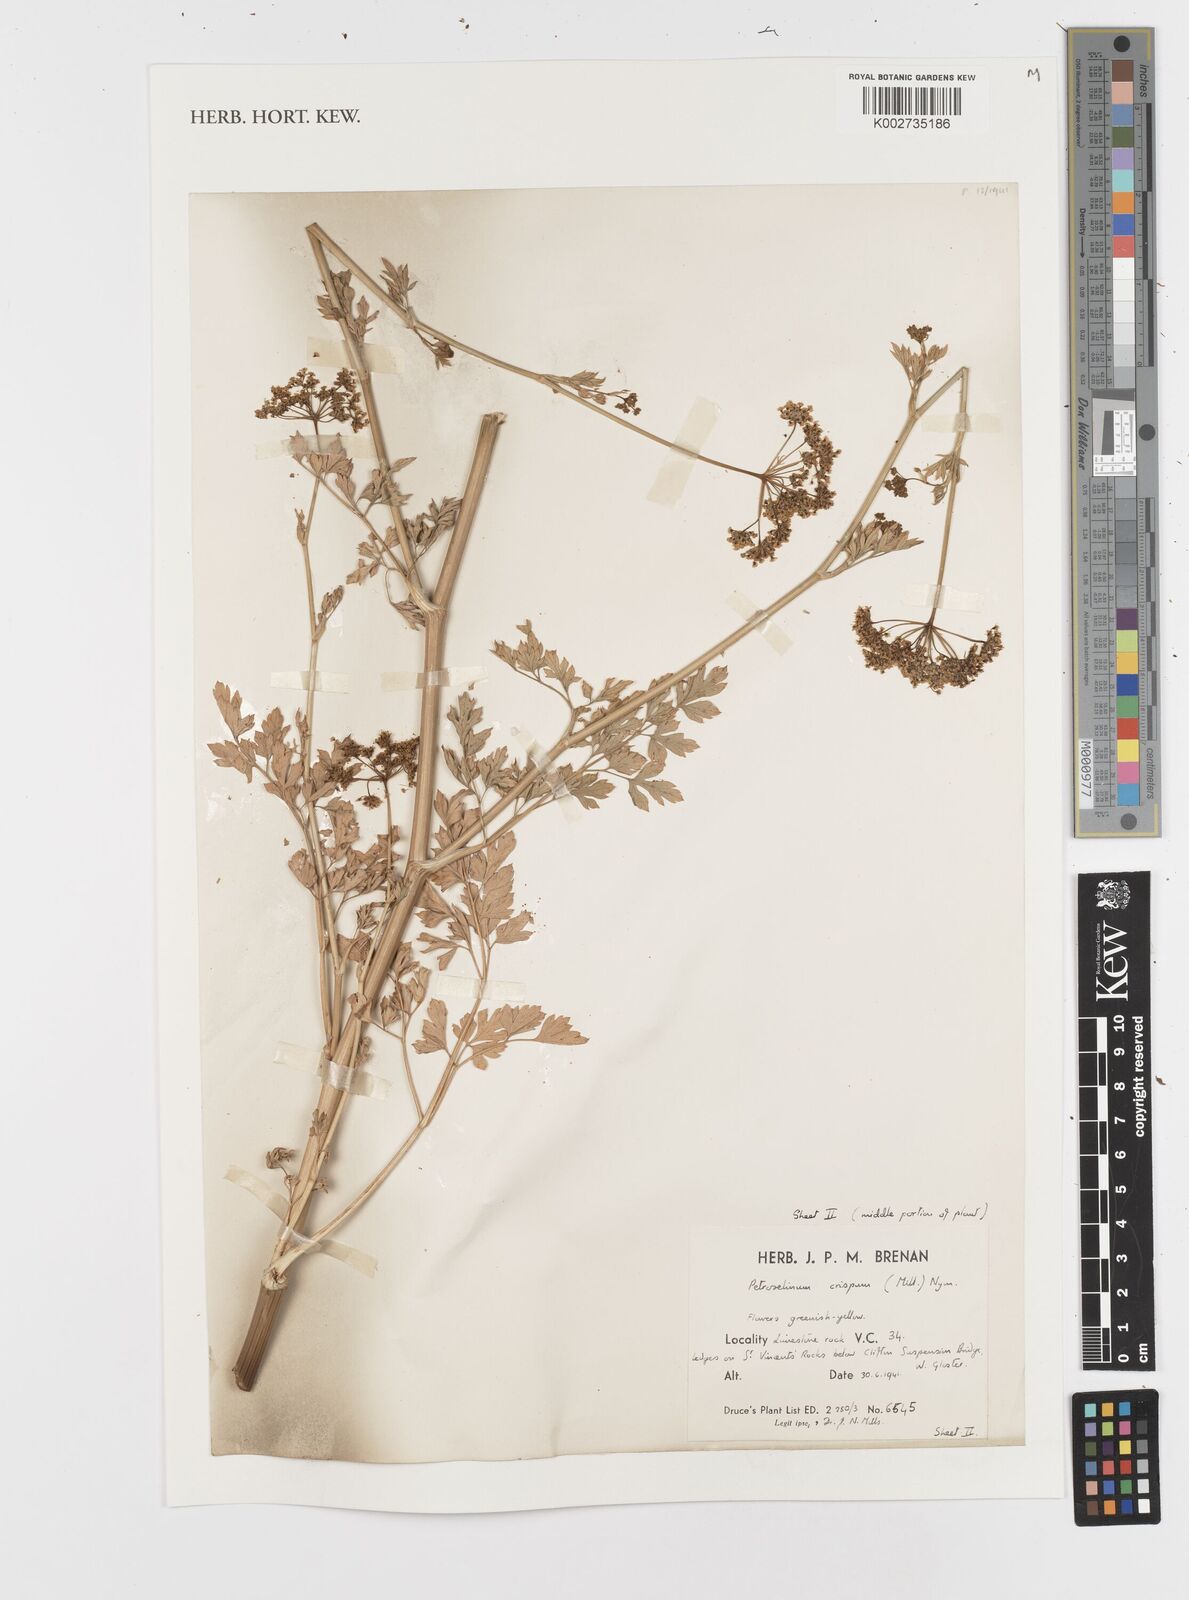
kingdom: Plantae
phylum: Tracheophyta
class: Magnoliopsida
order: Apiales
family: Apiaceae
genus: Petroselinum
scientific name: Petroselinum crispum
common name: Parsley
